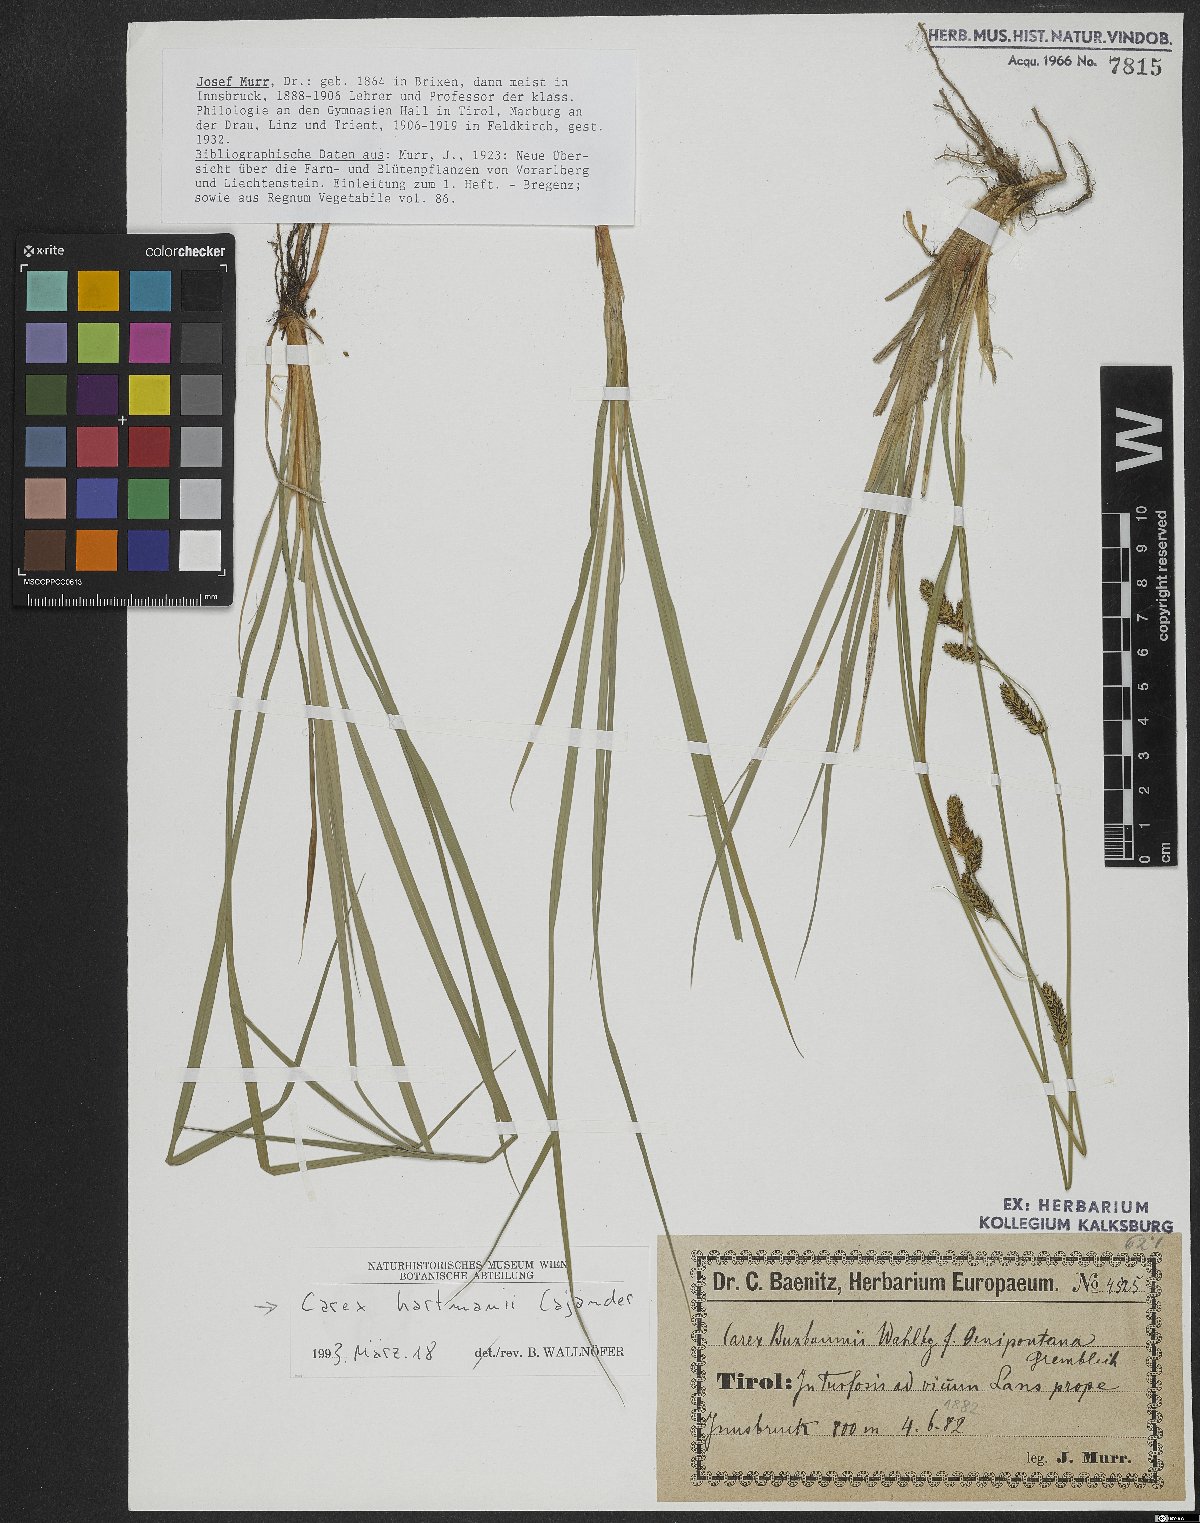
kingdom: Plantae
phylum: Tracheophyta
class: Liliopsida
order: Poales
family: Cyperaceae
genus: Carex
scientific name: Carex hartmaniorum
